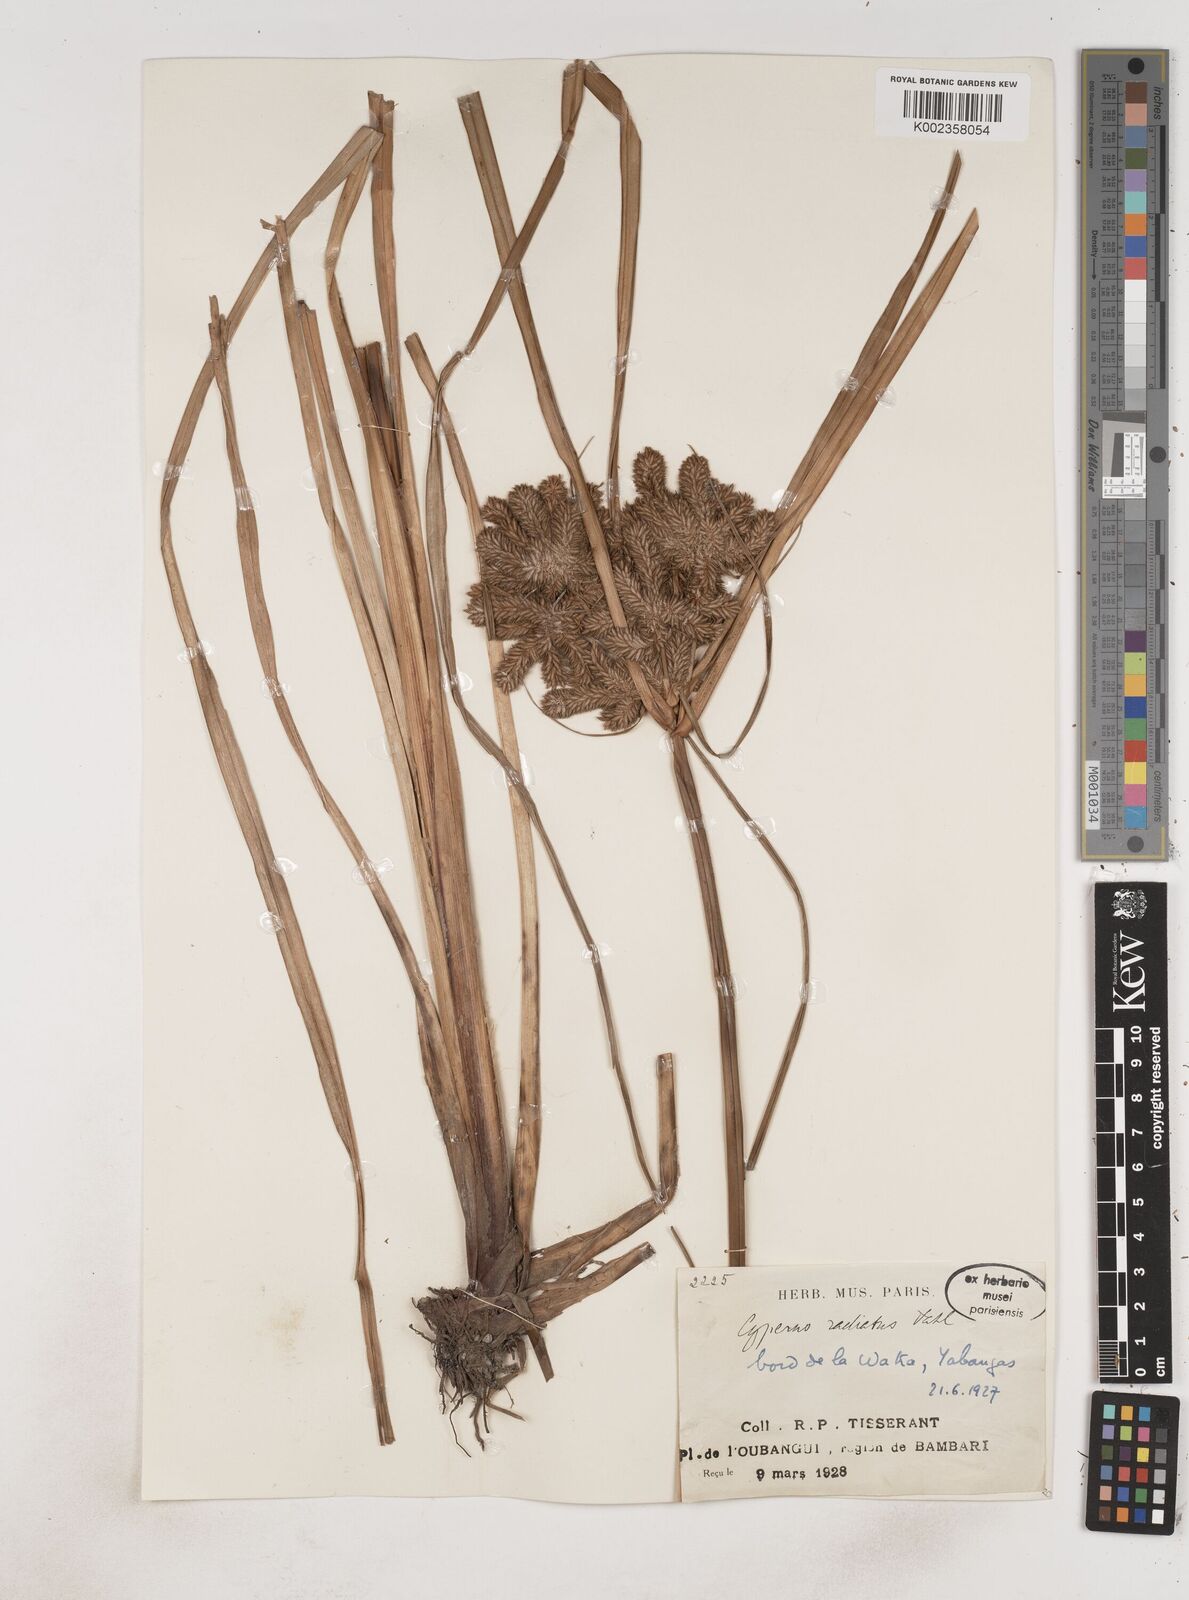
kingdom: Plantae
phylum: Tracheophyta
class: Liliopsida
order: Poales
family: Cyperaceae
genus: Cyperus
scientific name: Cyperus imbricatus
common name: Shingle flatsedge
